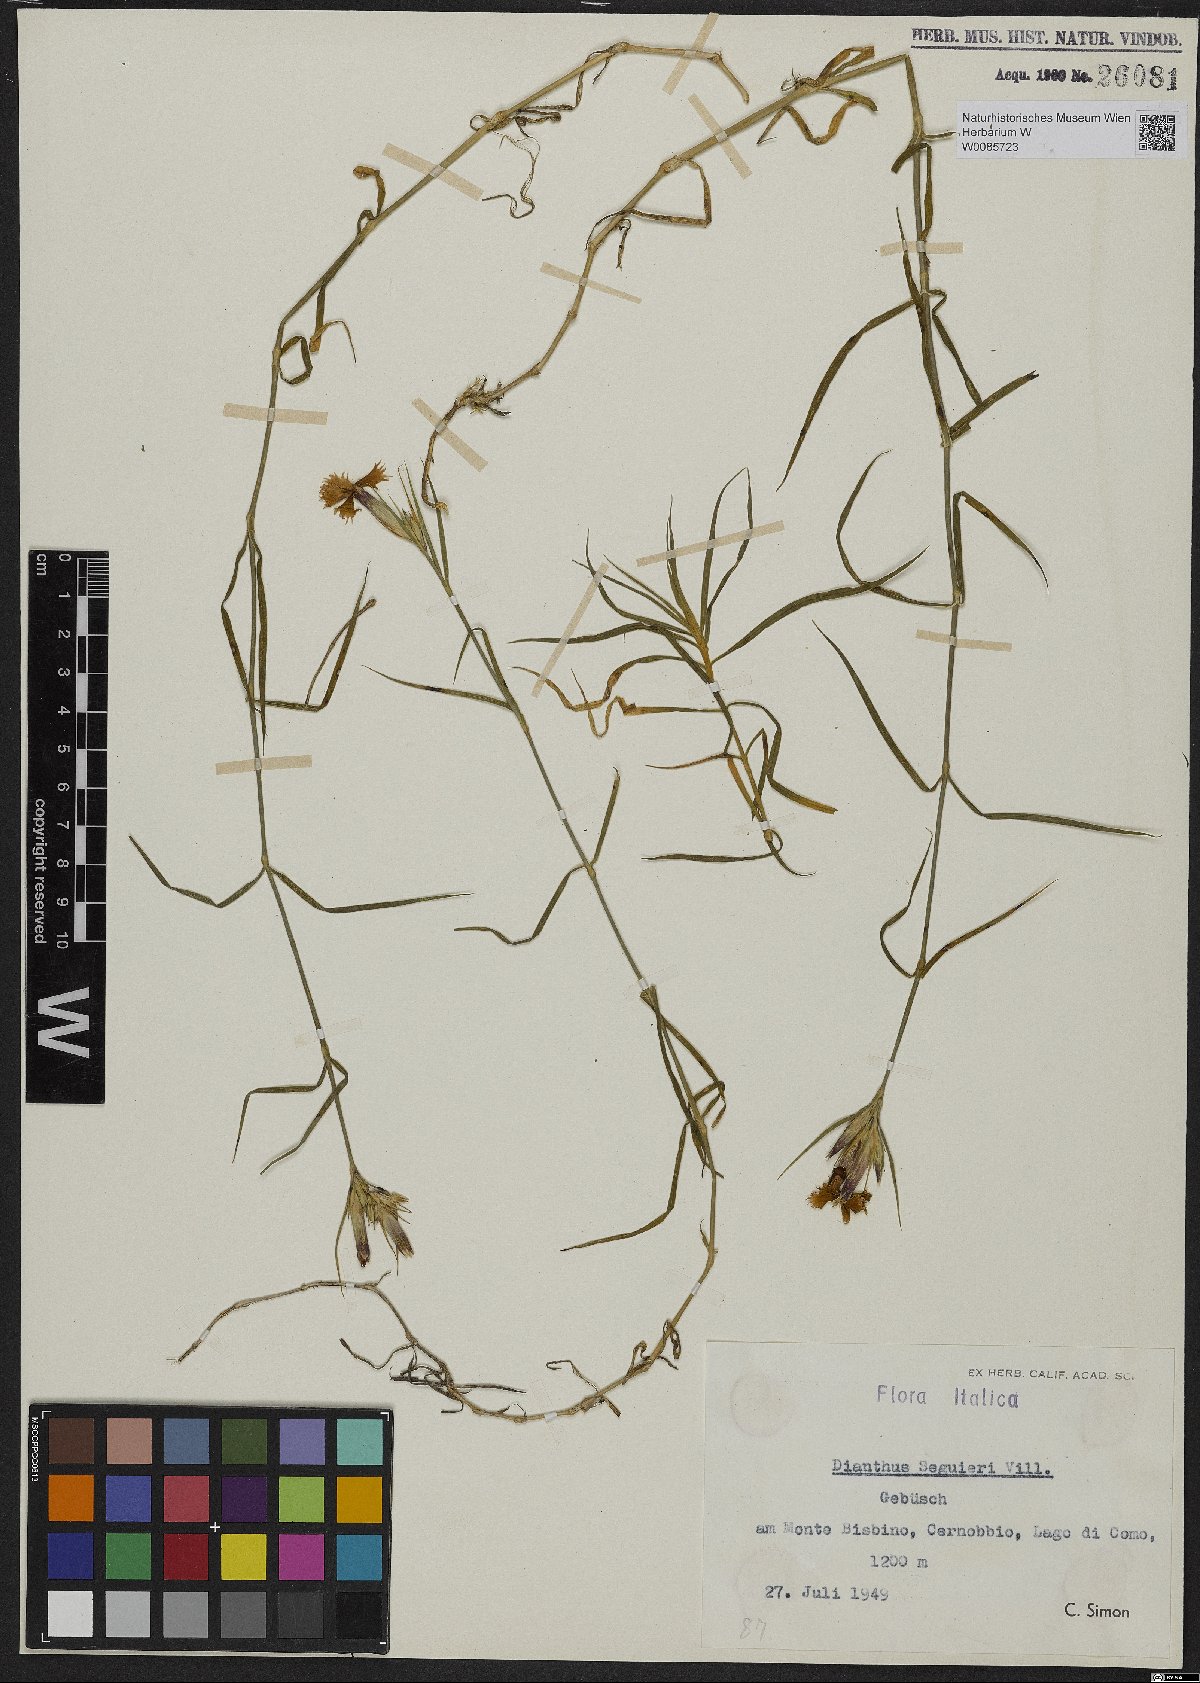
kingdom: Plantae
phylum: Tracheophyta
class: Magnoliopsida
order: Caryophyllales
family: Caryophyllaceae
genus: Dianthus
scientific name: Dianthus seguieri
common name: Ragged pink
